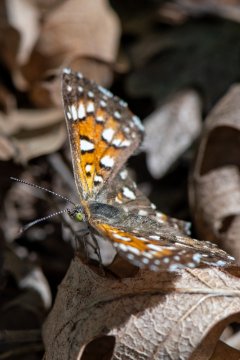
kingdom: Animalia
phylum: Arthropoda
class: Insecta
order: Lepidoptera
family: Riodinidae
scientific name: Riodinidae
